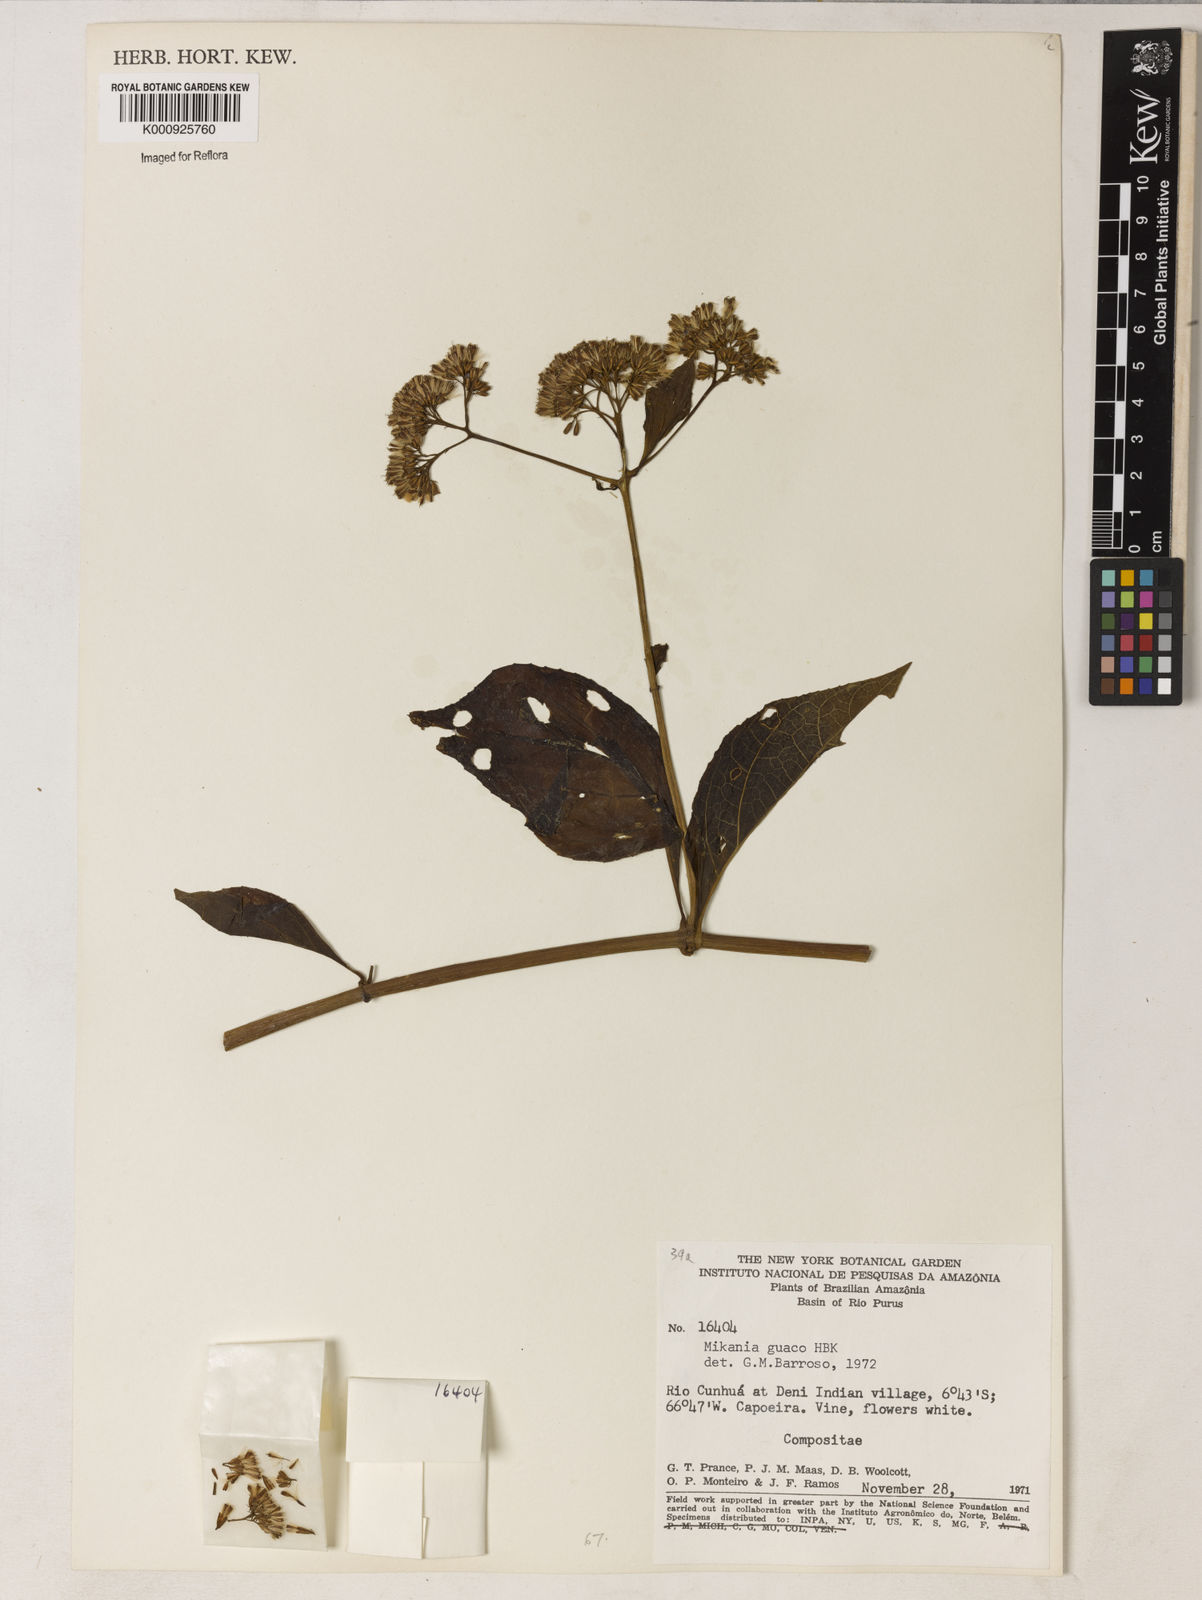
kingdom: Plantae
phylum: Tracheophyta
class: Magnoliopsida
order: Asterales
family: Asteraceae
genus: Mikania
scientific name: Mikania guaco
